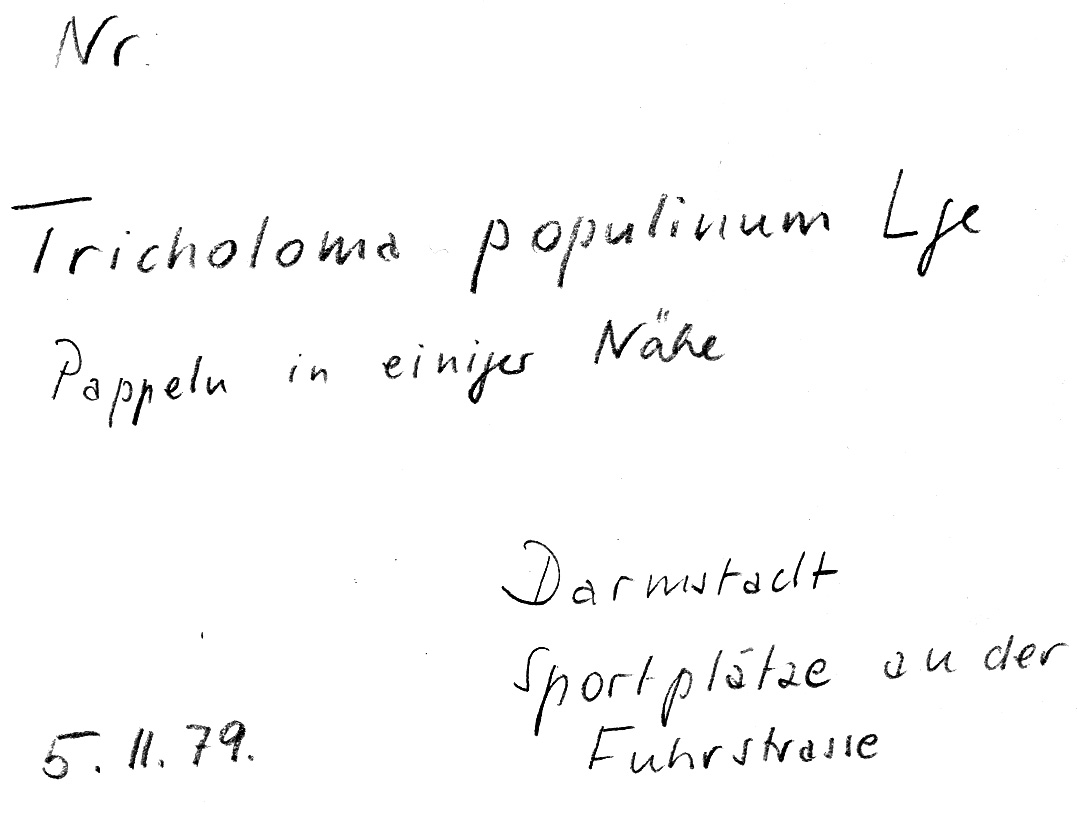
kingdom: Fungi
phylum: Basidiomycota
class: Agaricomycetes
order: Agaricales
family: Tricholomataceae
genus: Tricholoma
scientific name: Tricholoma populinum
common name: Poplar knight
